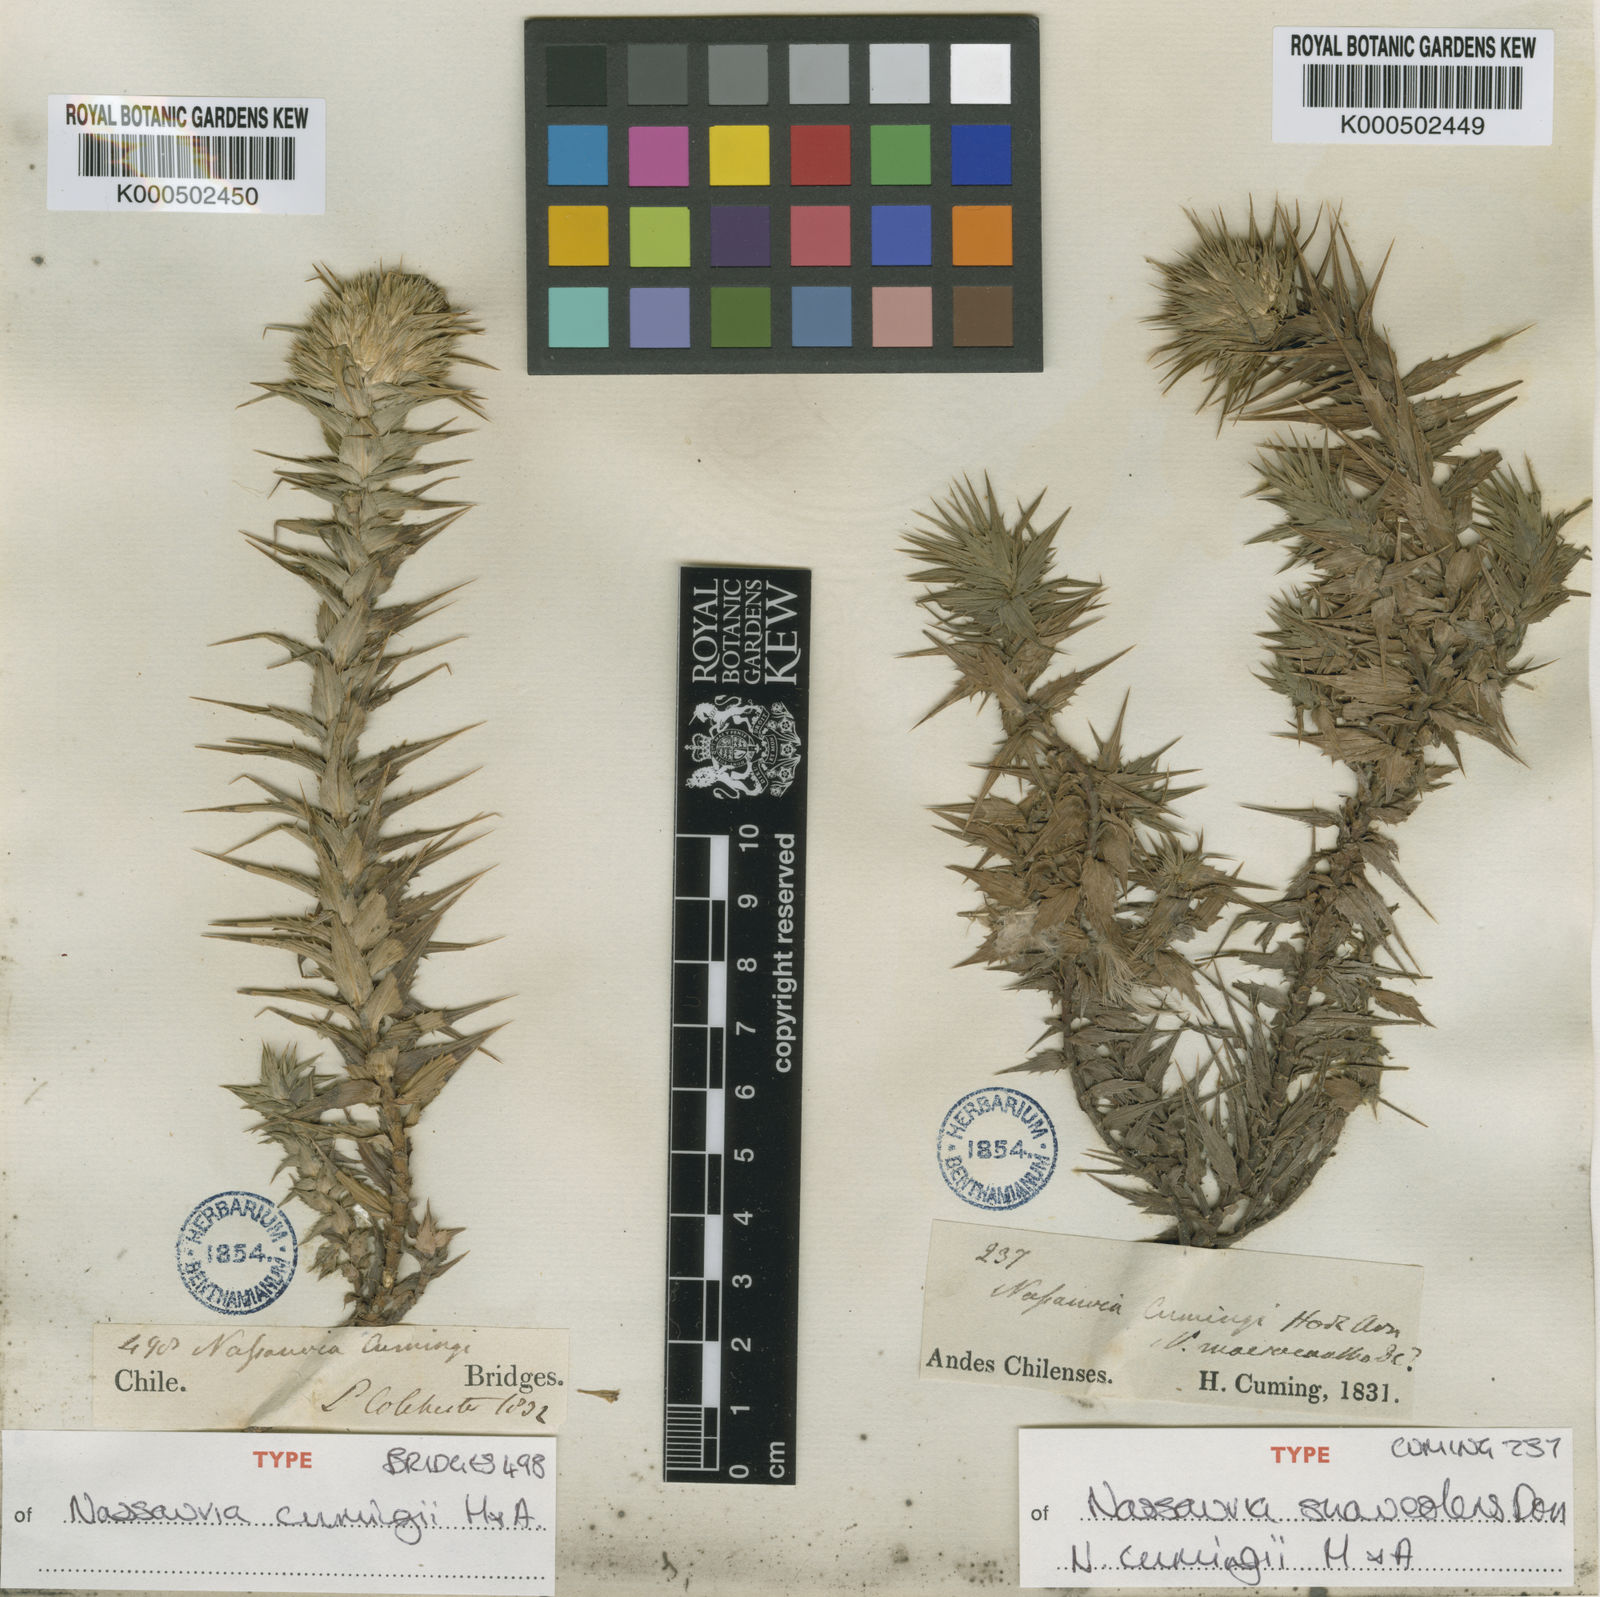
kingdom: Plantae
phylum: Tracheophyta
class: Magnoliopsida
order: Asterales
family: Asteraceae
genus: Nassauvia
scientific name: Nassauvia cumingii
